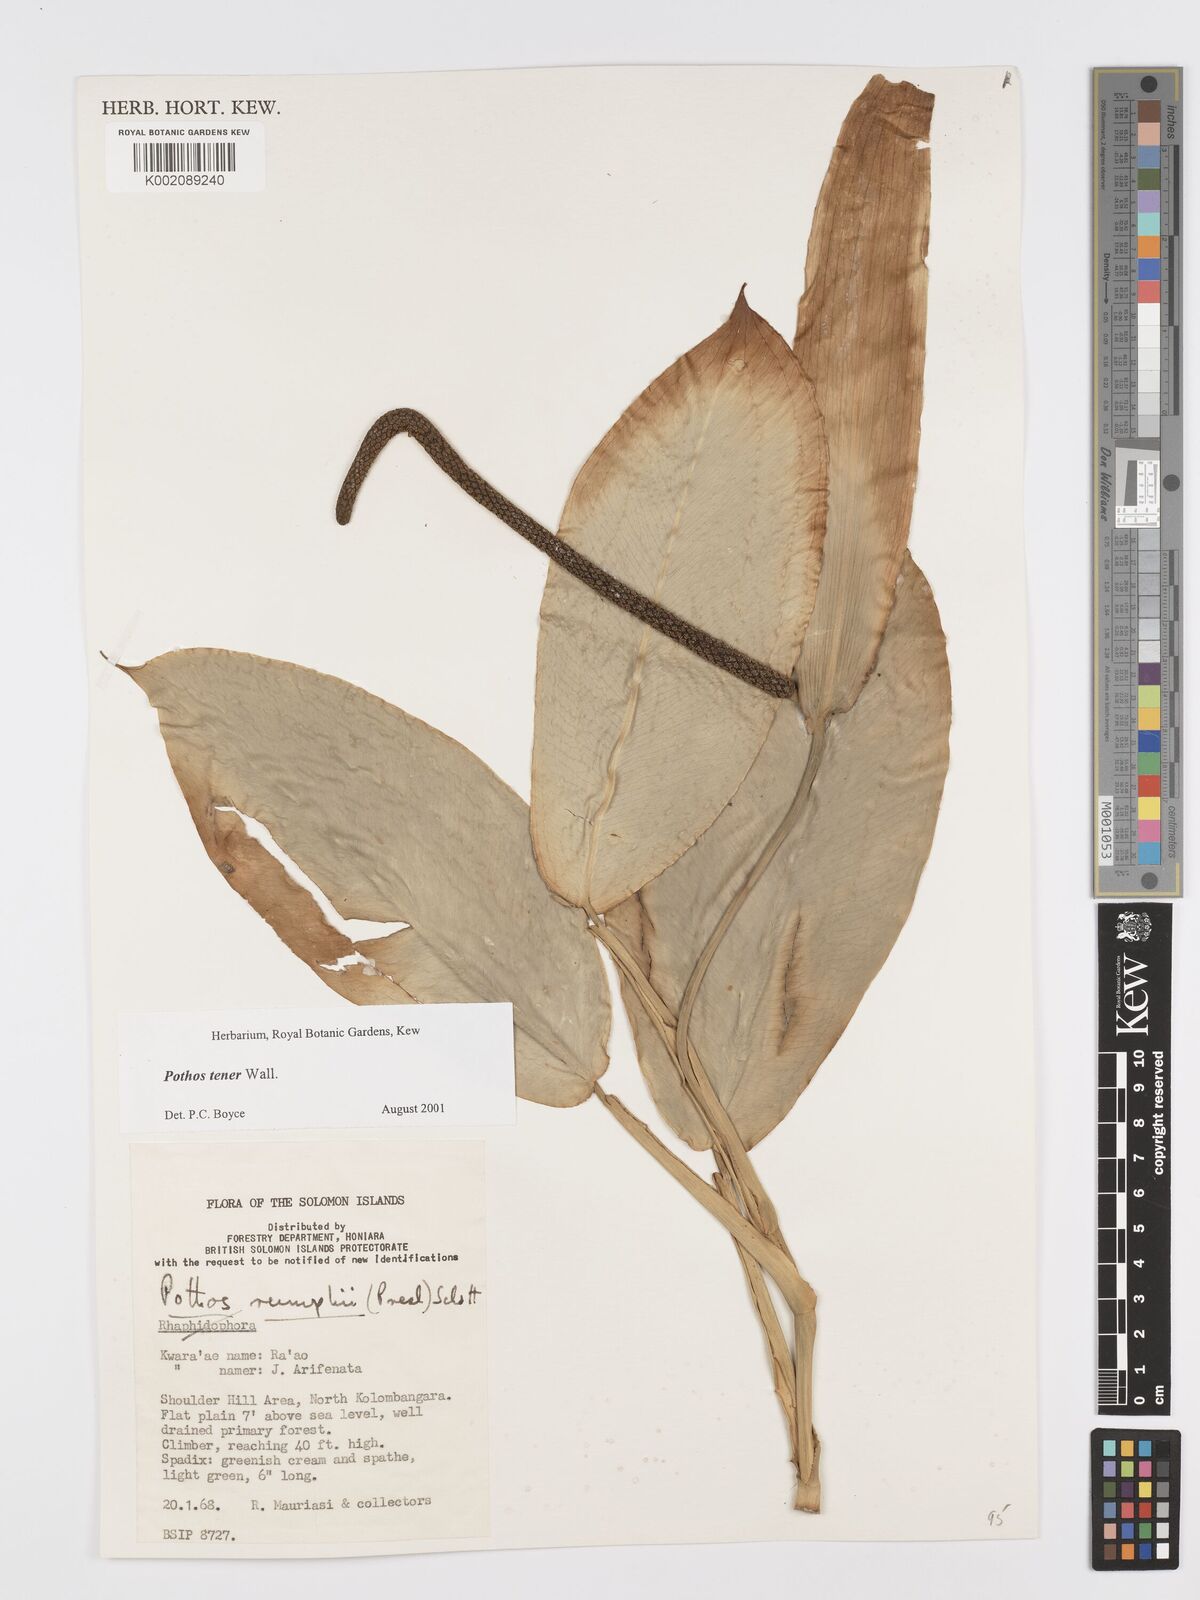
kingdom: Plantae
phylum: Tracheophyta
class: Liliopsida
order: Alismatales
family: Araceae
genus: Pothos
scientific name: Pothos tener
